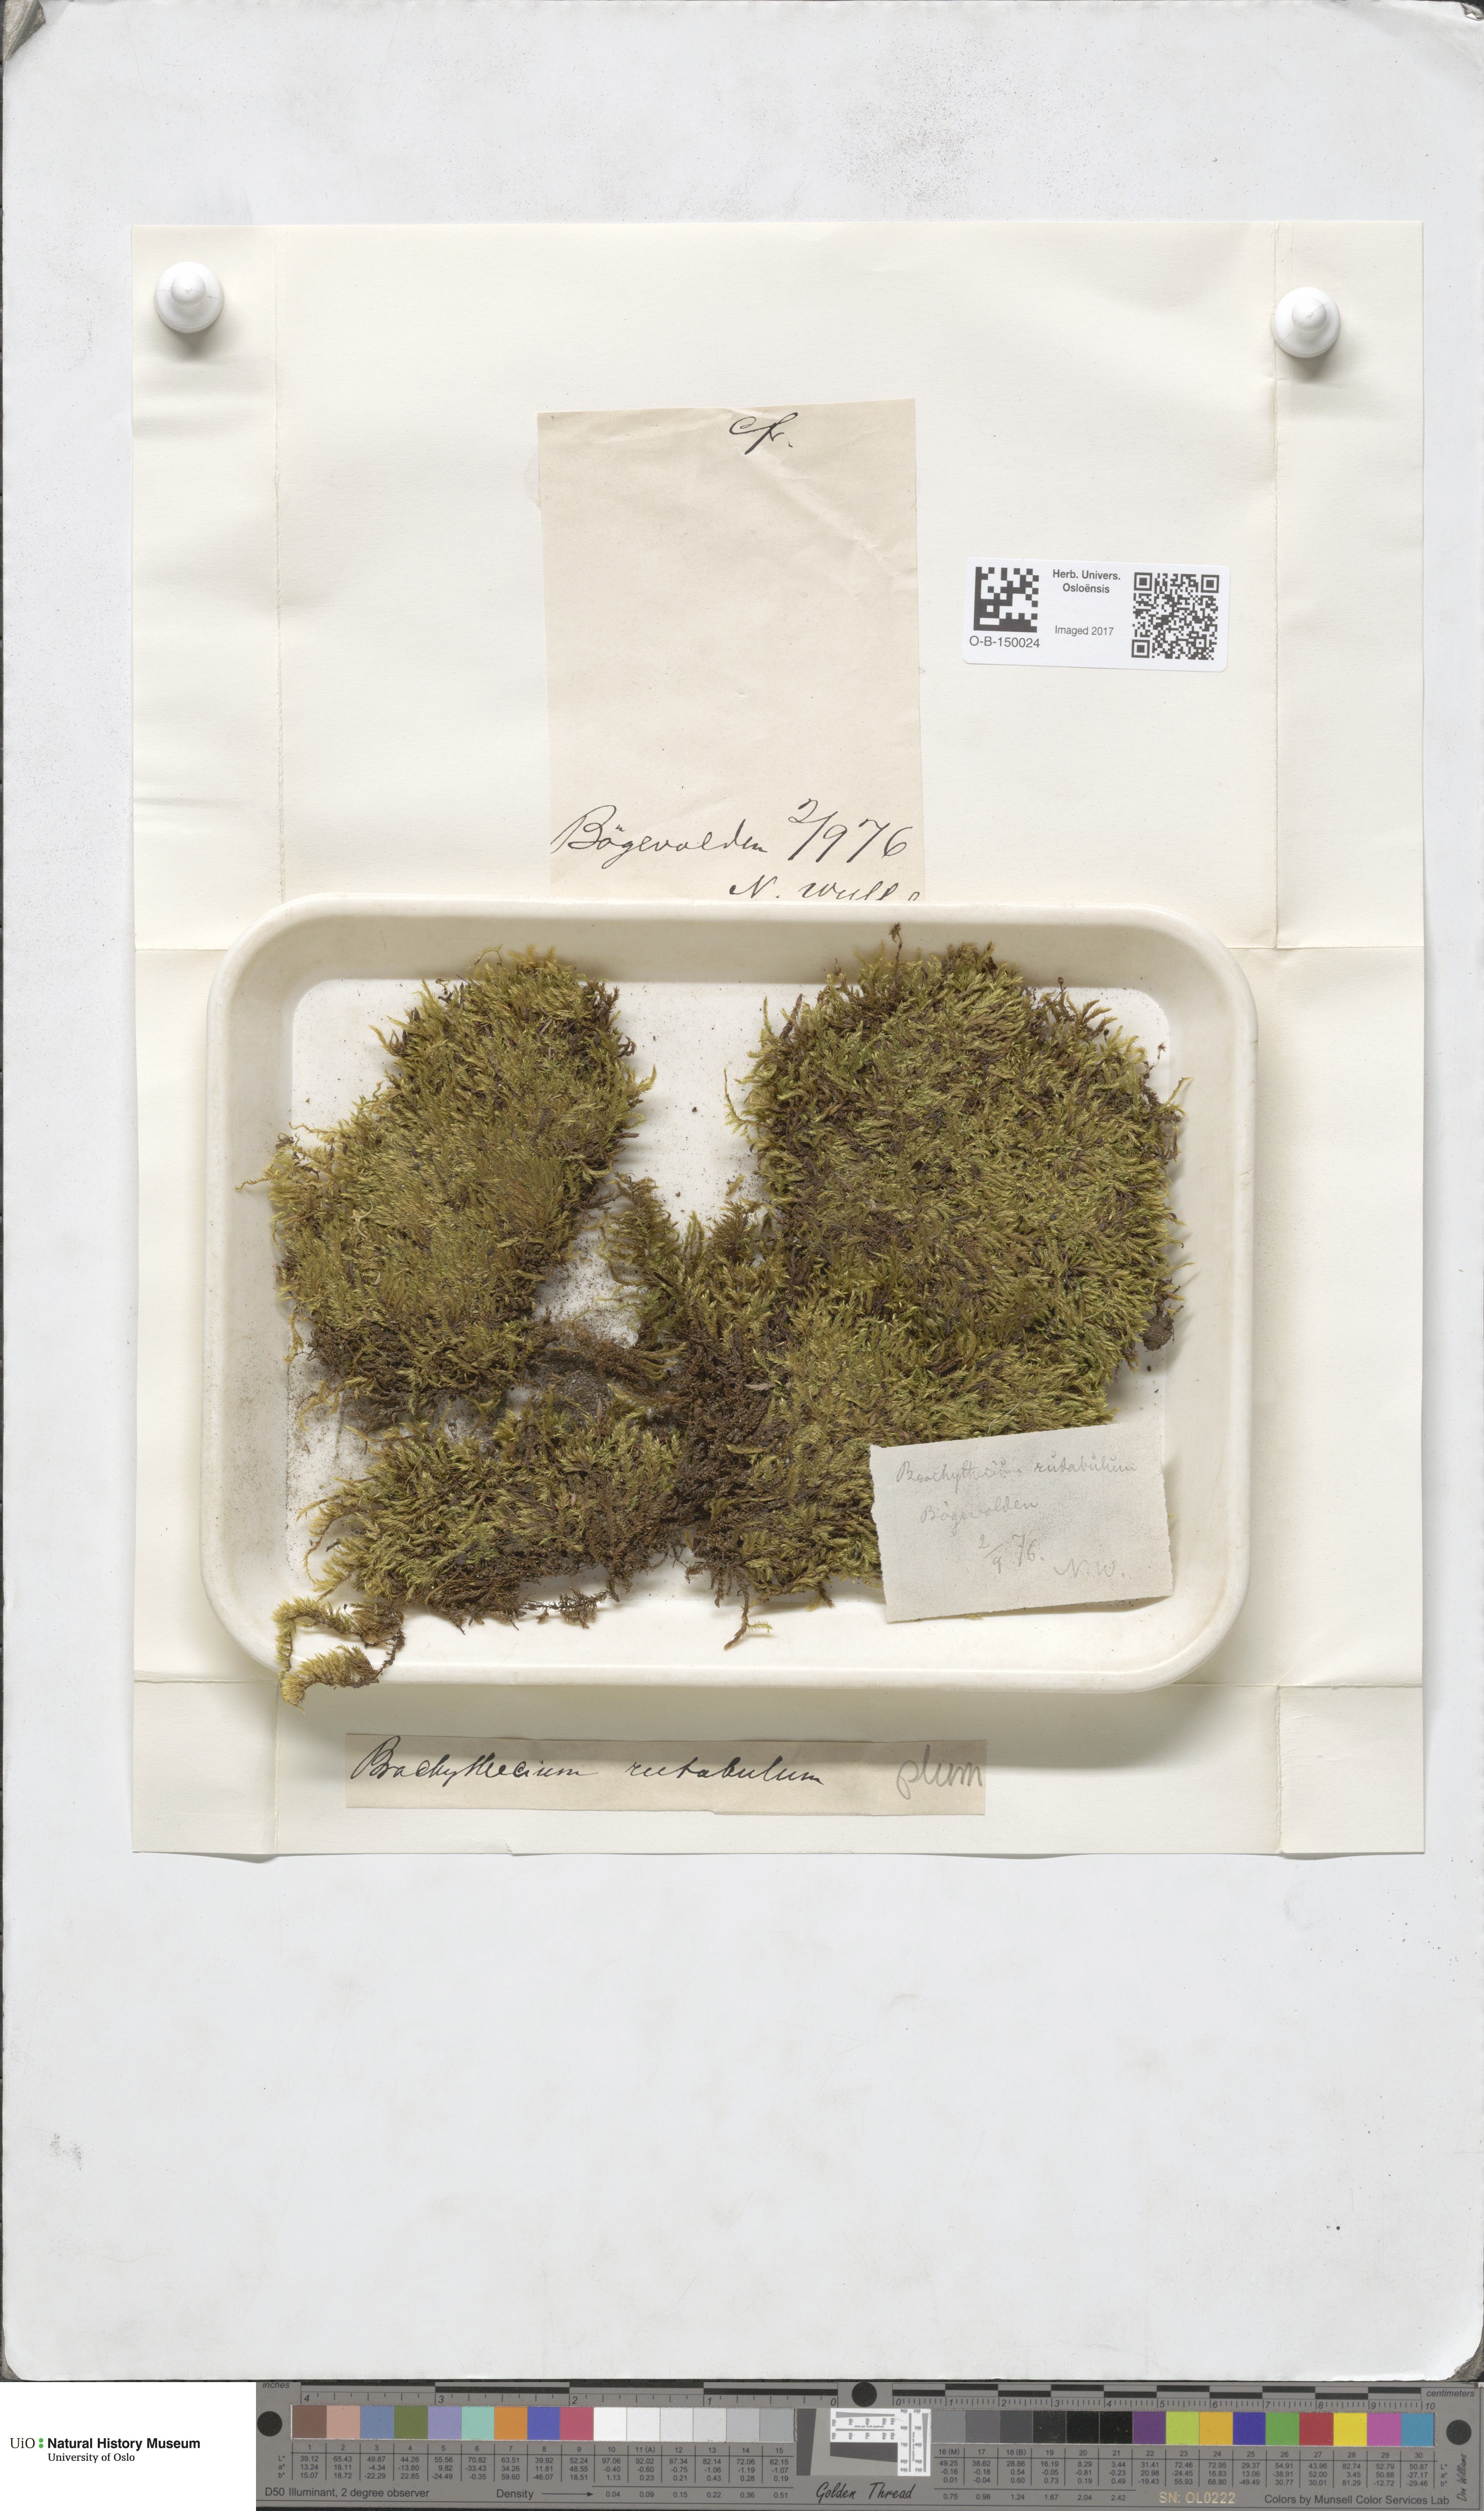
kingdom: Plantae
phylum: Bryophyta
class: Bryopsida
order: Hypnales
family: Brachytheciaceae
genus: Brachythecium
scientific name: Brachythecium rutabulum
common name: Rough-stalked feather-moss
